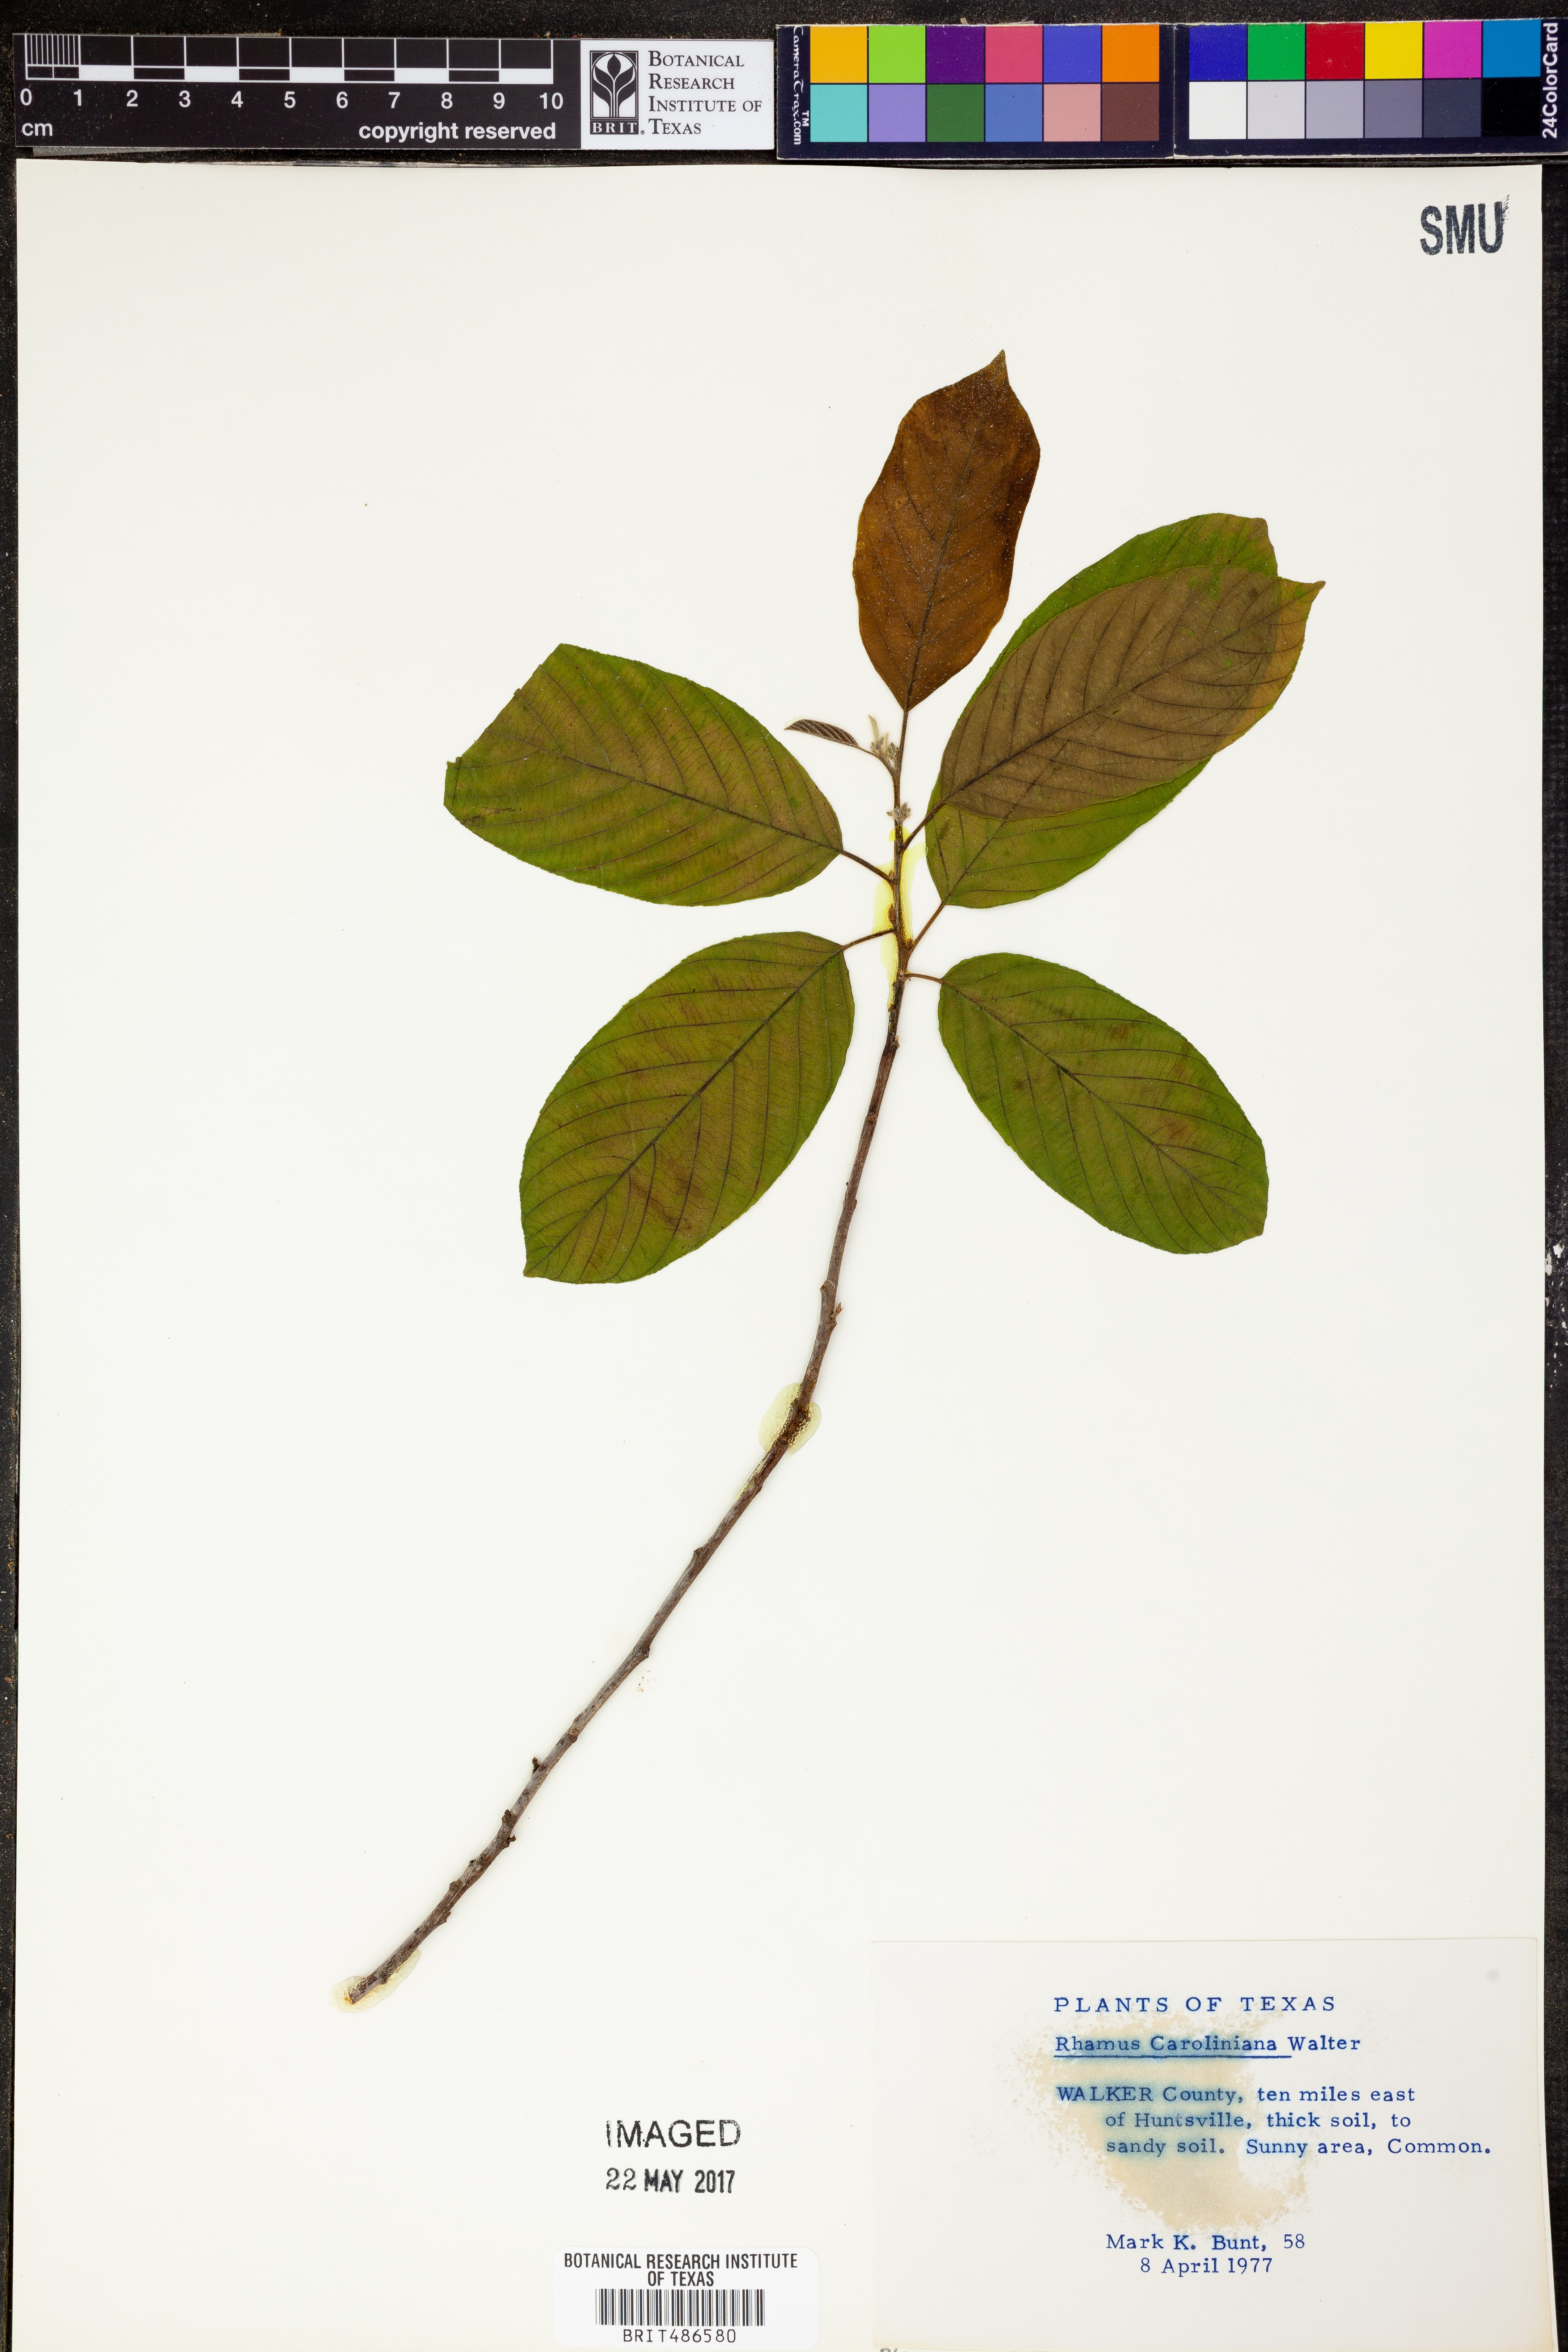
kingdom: Plantae
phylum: Tracheophyta
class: Magnoliopsida
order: Rosales
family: Rhamnaceae
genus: Frangula
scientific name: Frangula caroliniana
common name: Carolina buckthorn
